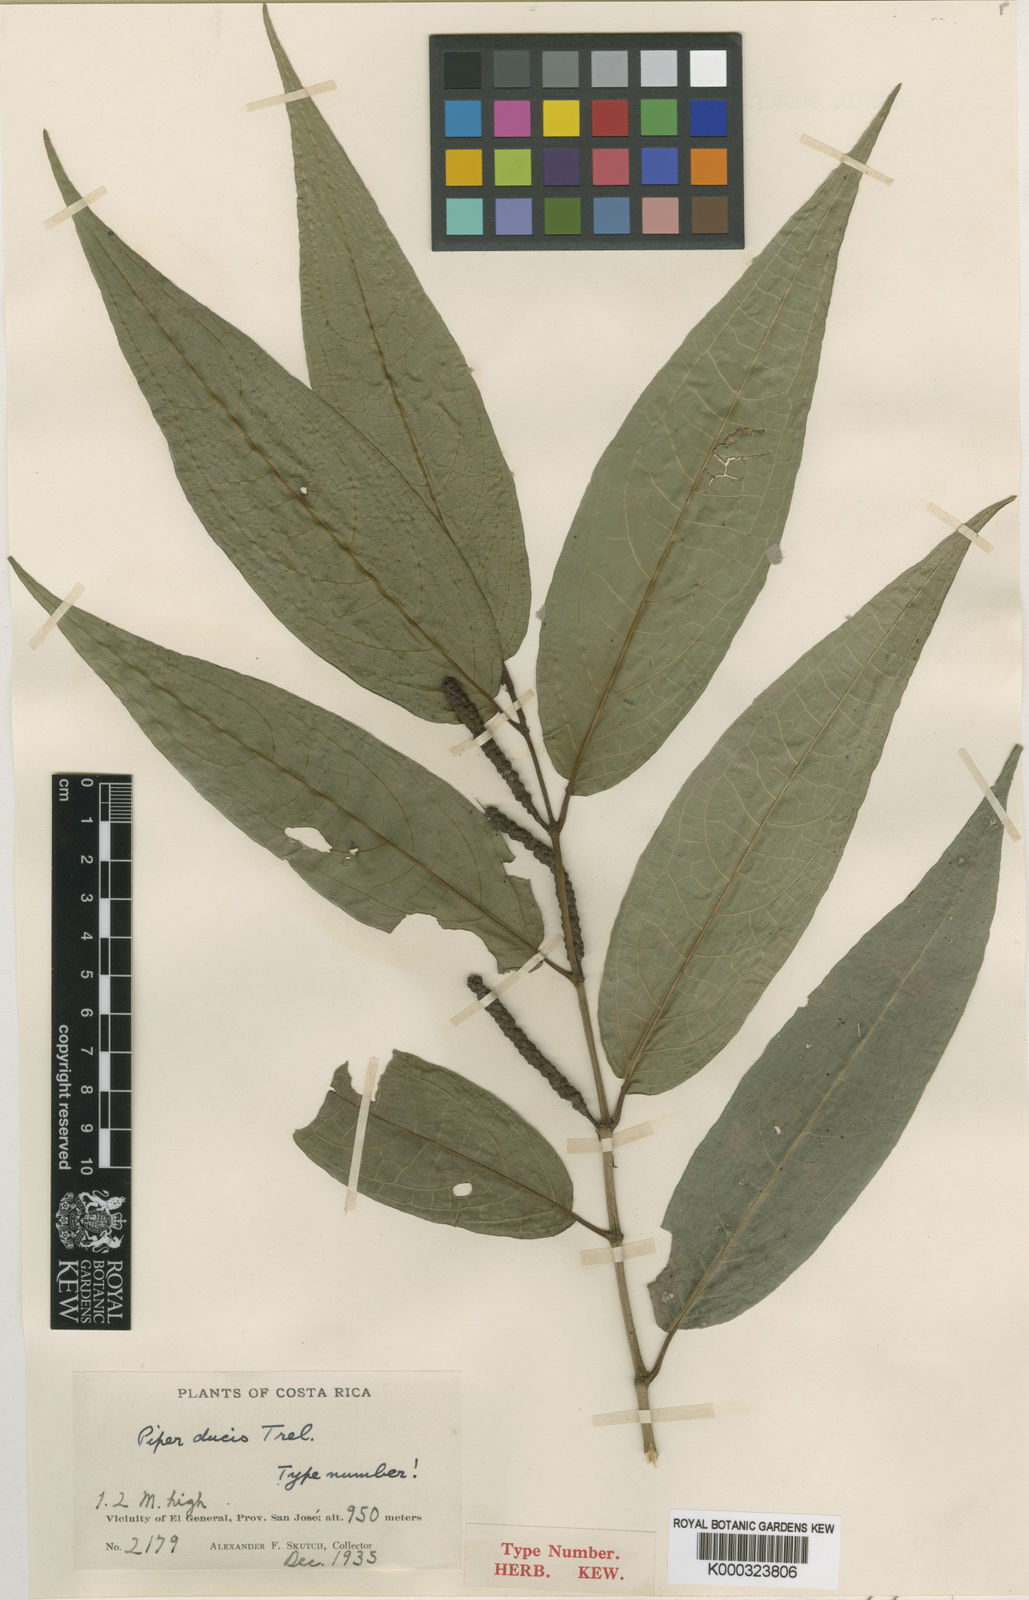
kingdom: Plantae
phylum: Tracheophyta
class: Magnoliopsida
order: Piperales
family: Piperaceae
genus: Piper
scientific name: Piper coilostachyum
